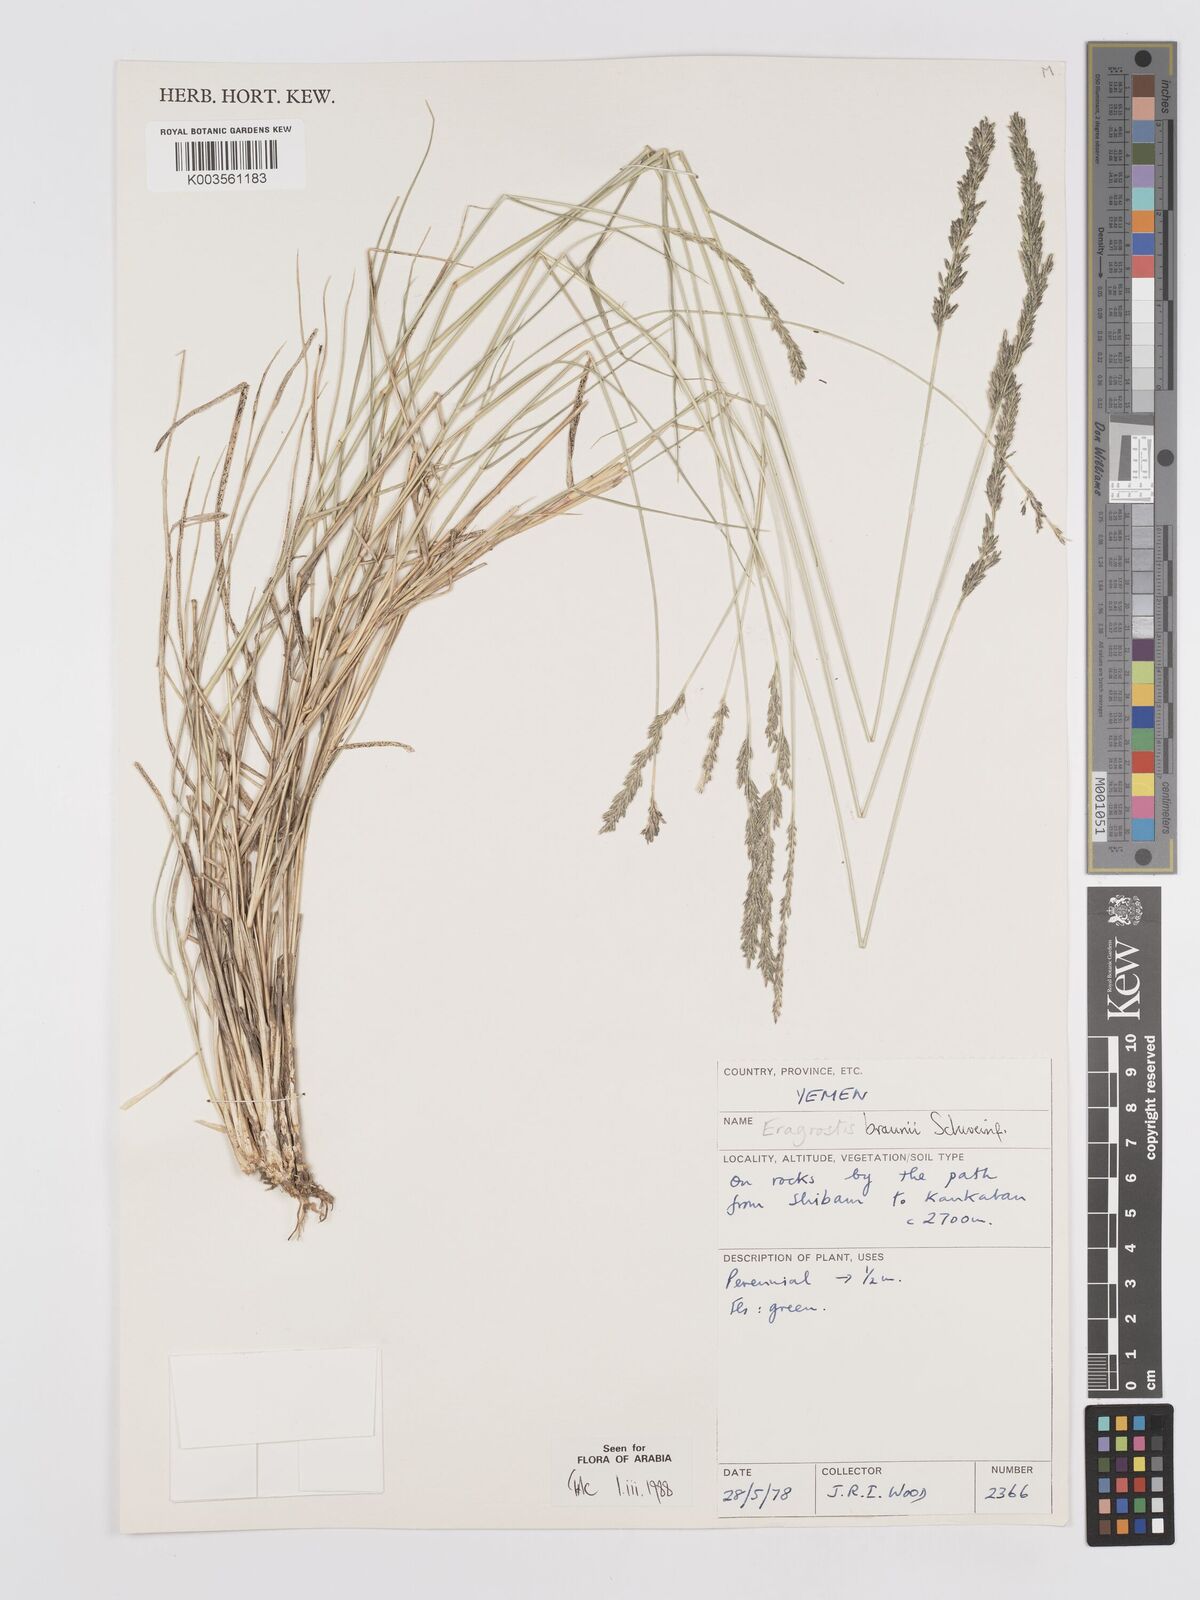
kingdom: Plantae
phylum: Tracheophyta
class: Liliopsida
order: Poales
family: Poaceae
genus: Eragrostis
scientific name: Eragrostis braunii
